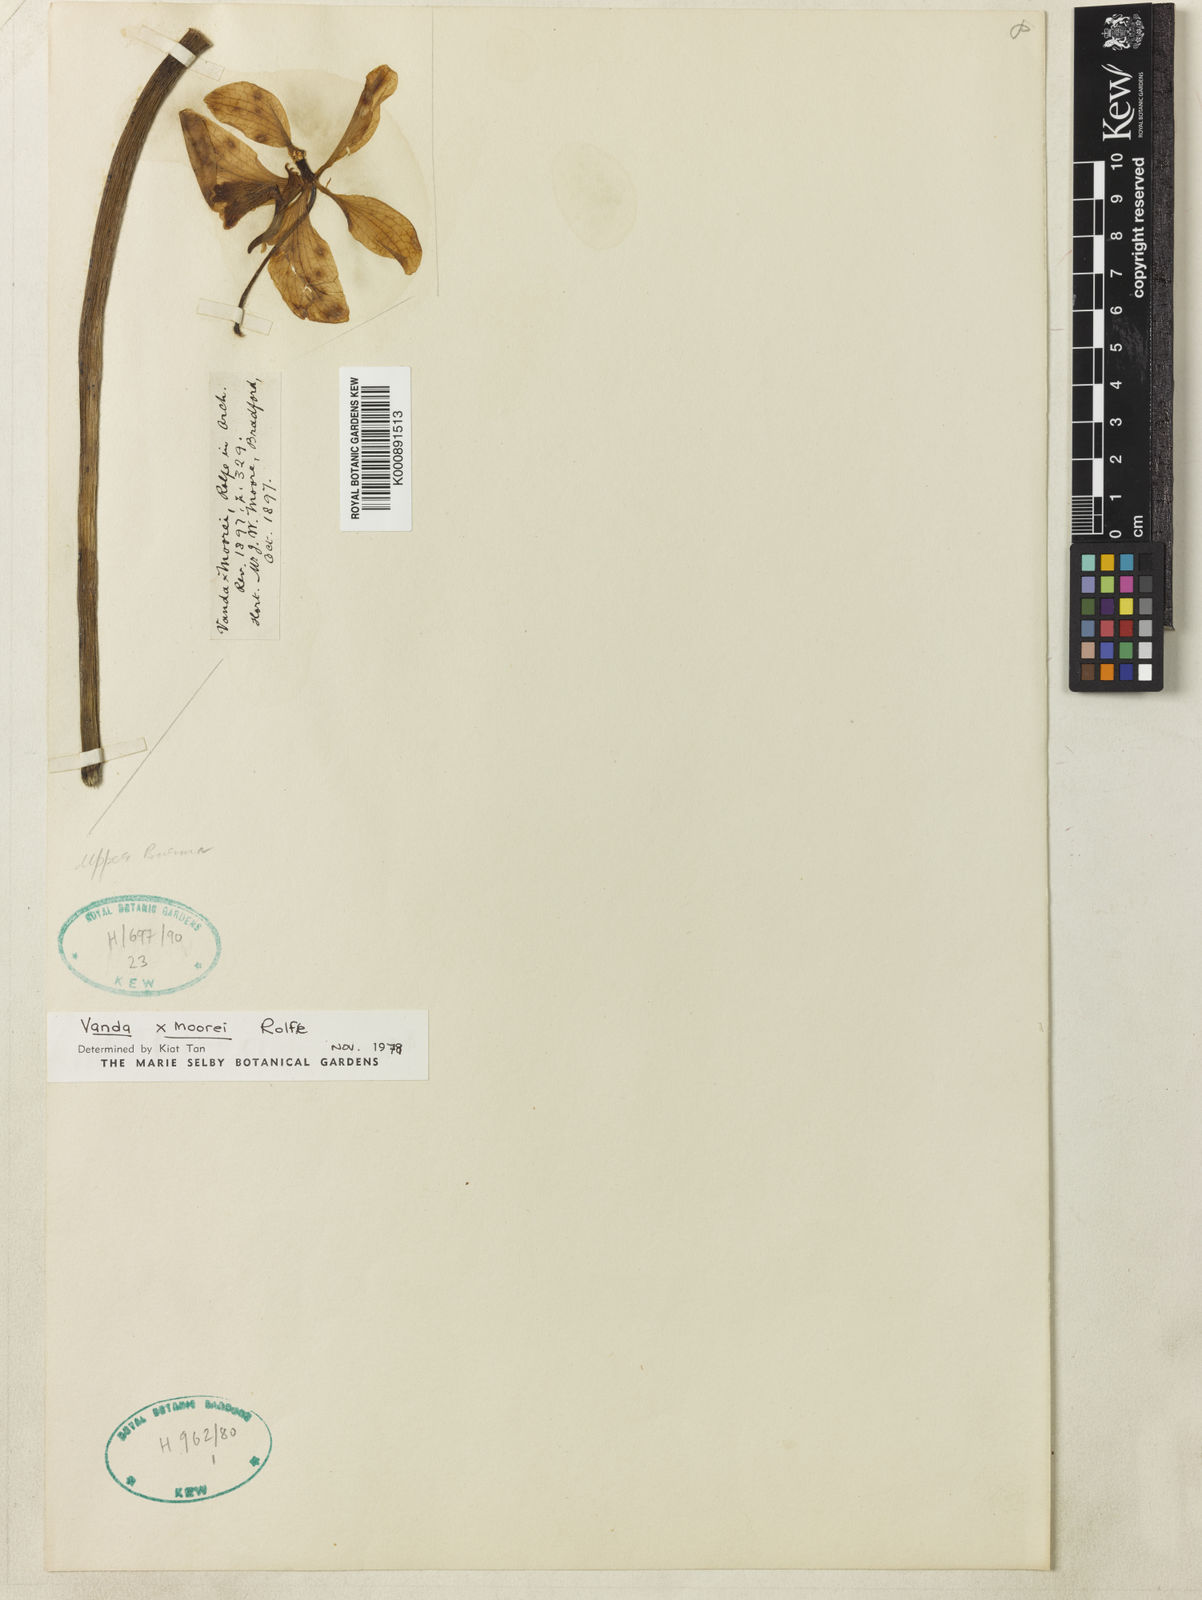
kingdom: Plantae
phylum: Tracheophyta
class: Liliopsida
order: Asparagales
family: Orchidaceae
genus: Vandoglossum
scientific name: Vandoglossum moorei
